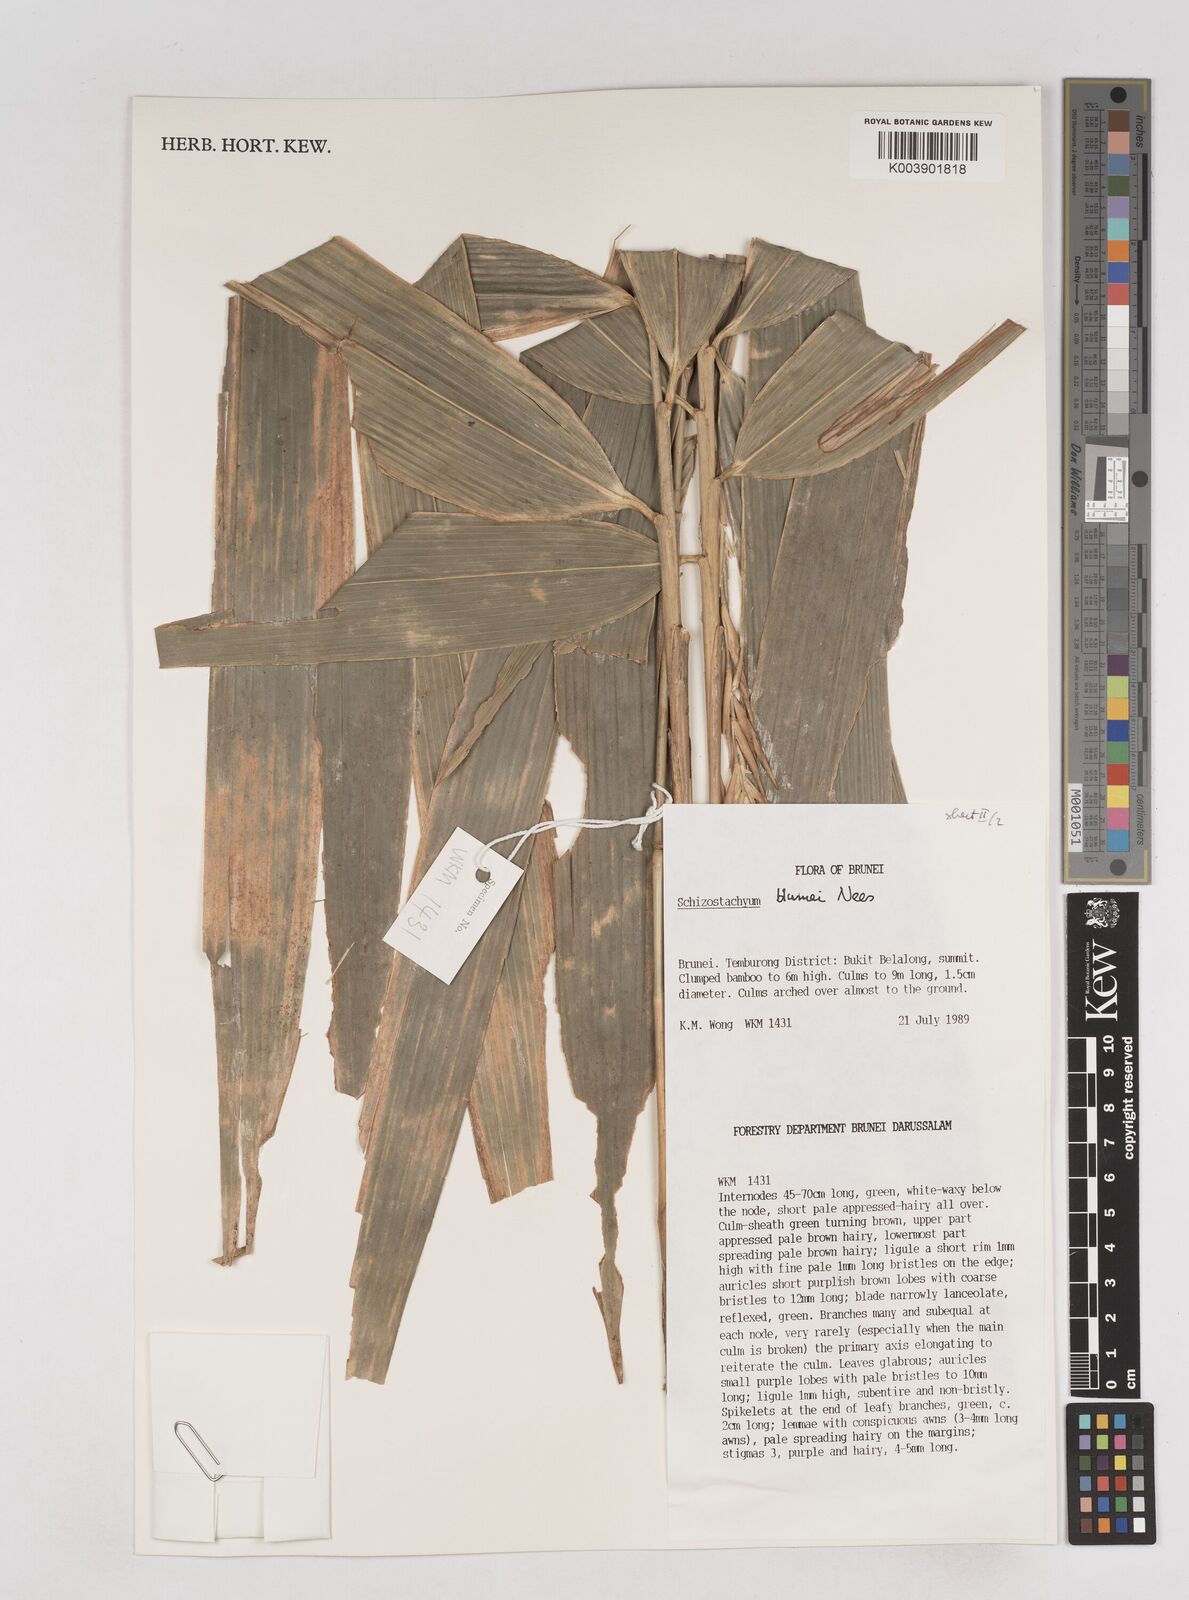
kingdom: Plantae
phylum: Tracheophyta
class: Liliopsida
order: Poales
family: Poaceae
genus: Schizostachyum
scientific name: Schizostachyum blumei
